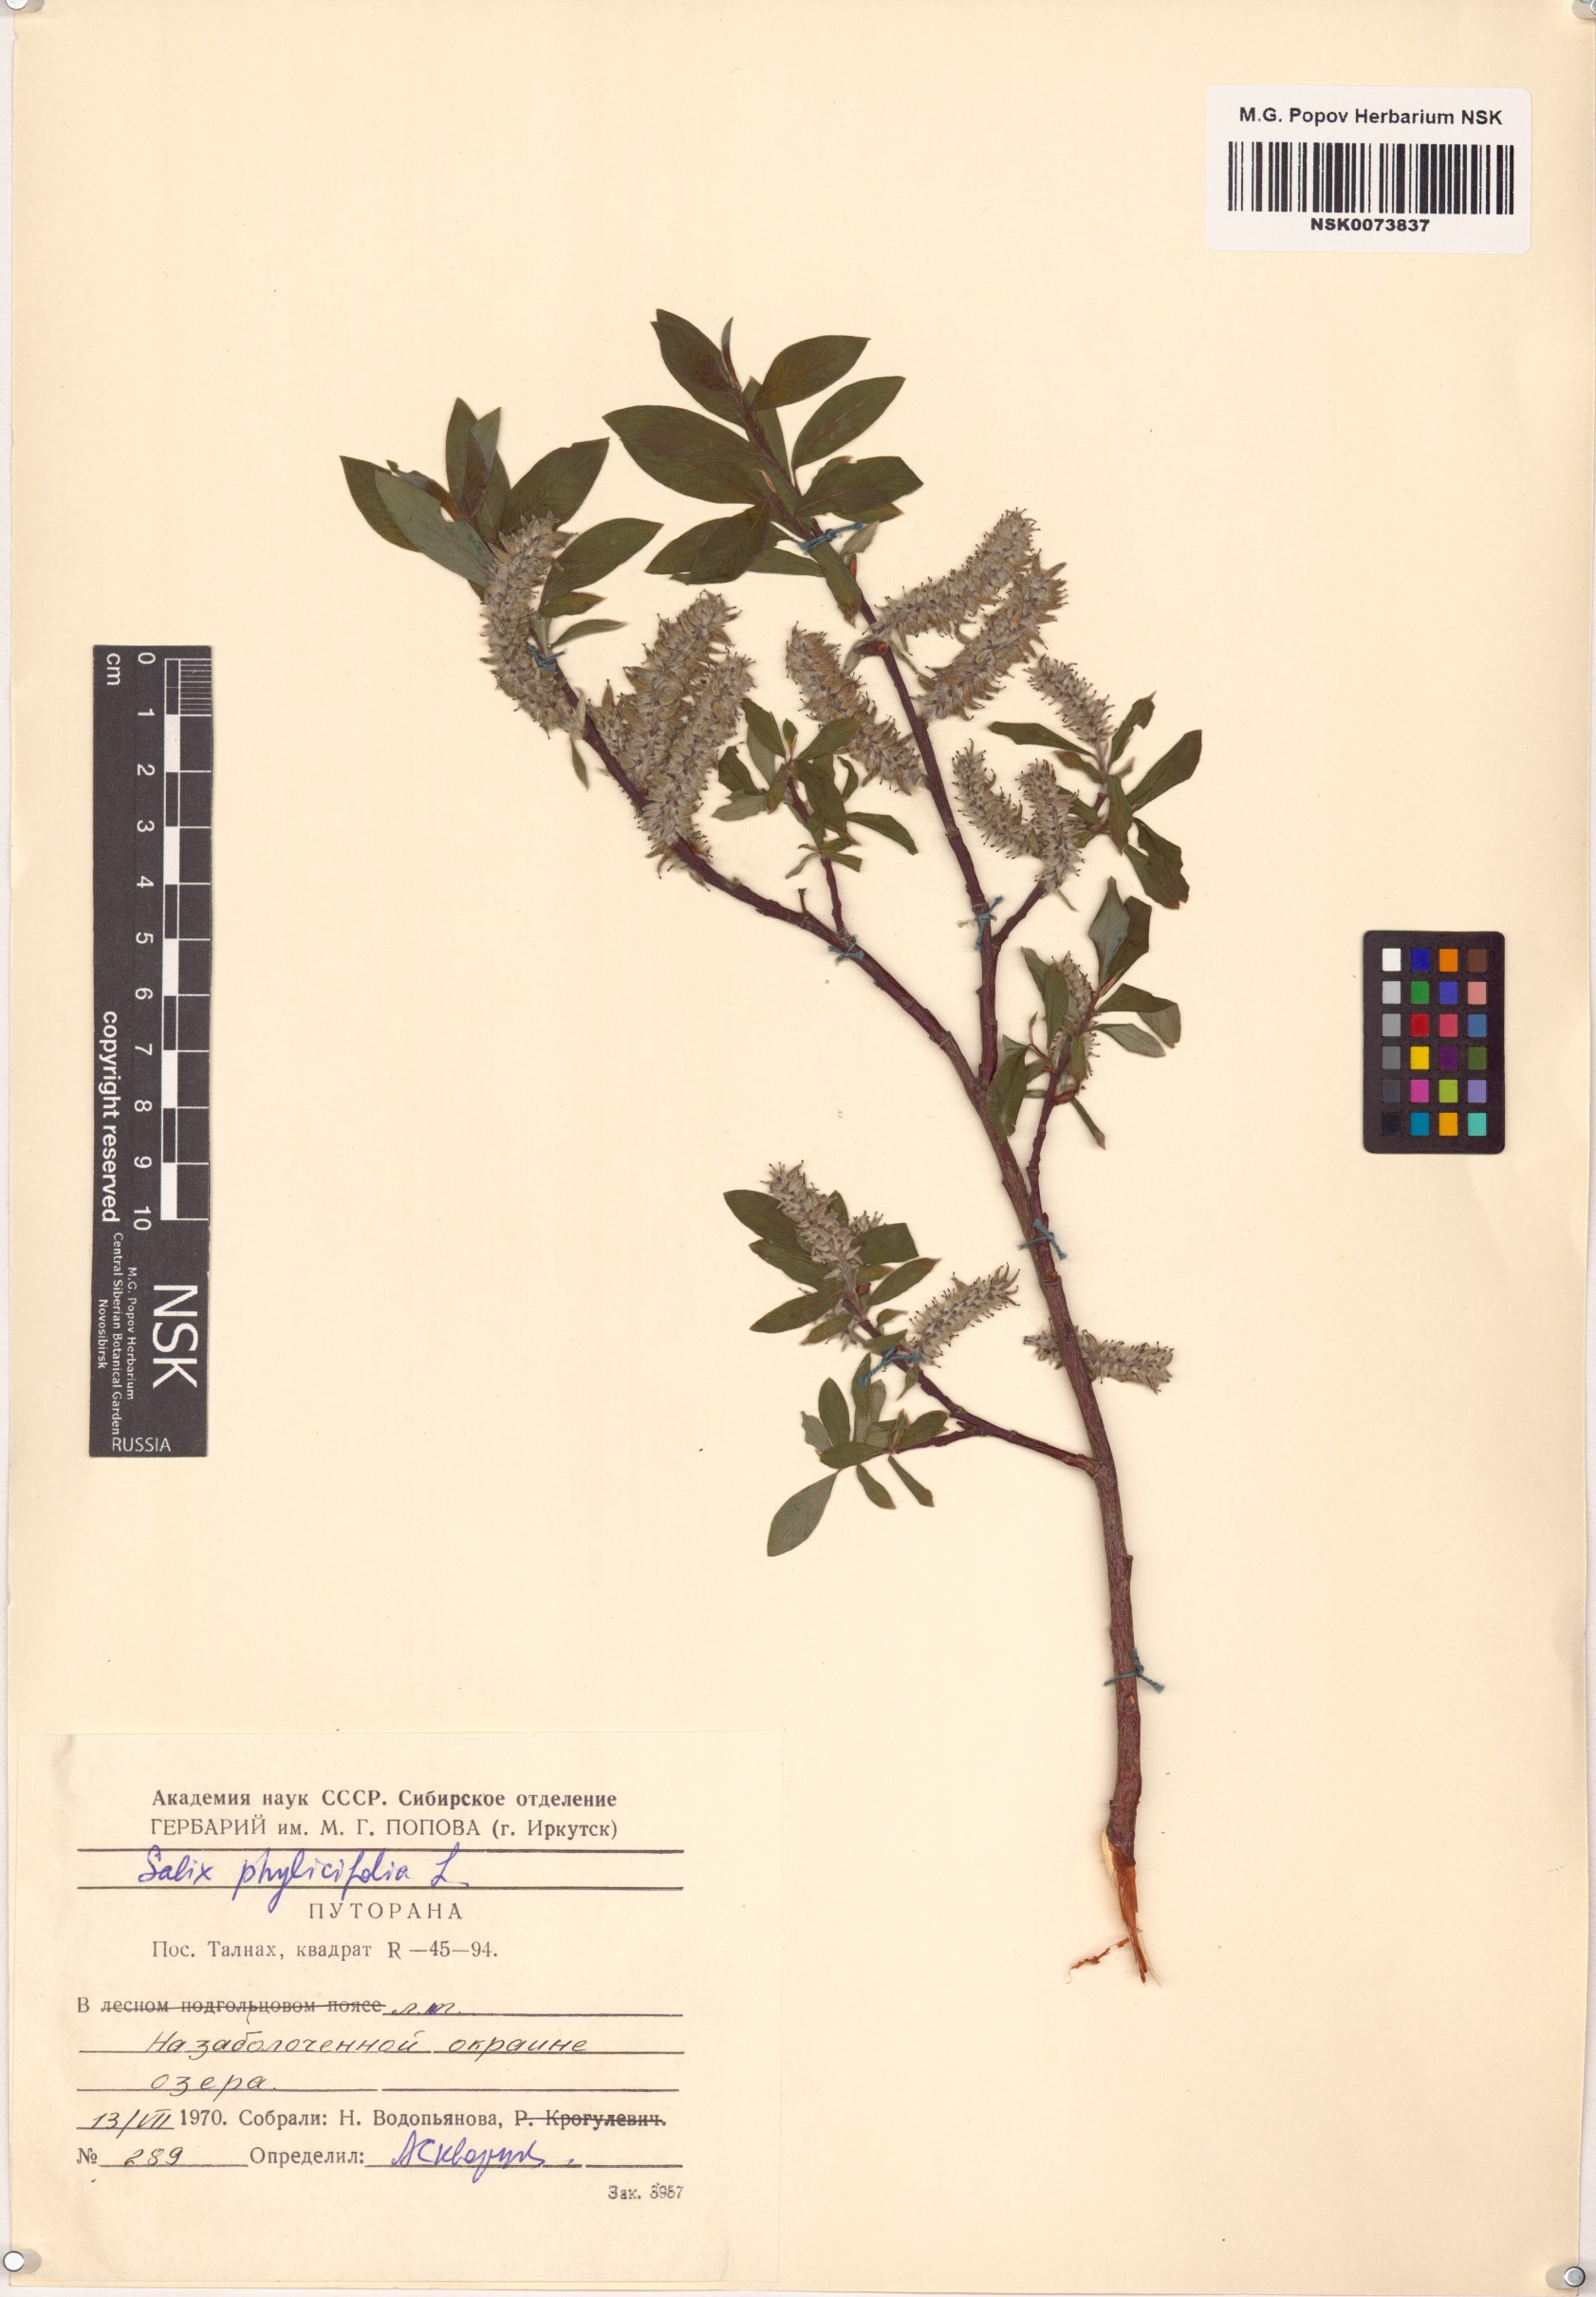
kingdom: Plantae
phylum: Tracheophyta
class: Magnoliopsida
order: Malpighiales
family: Salicaceae
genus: Salix
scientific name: Salix phylicifolia
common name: Tea-leaved willow
